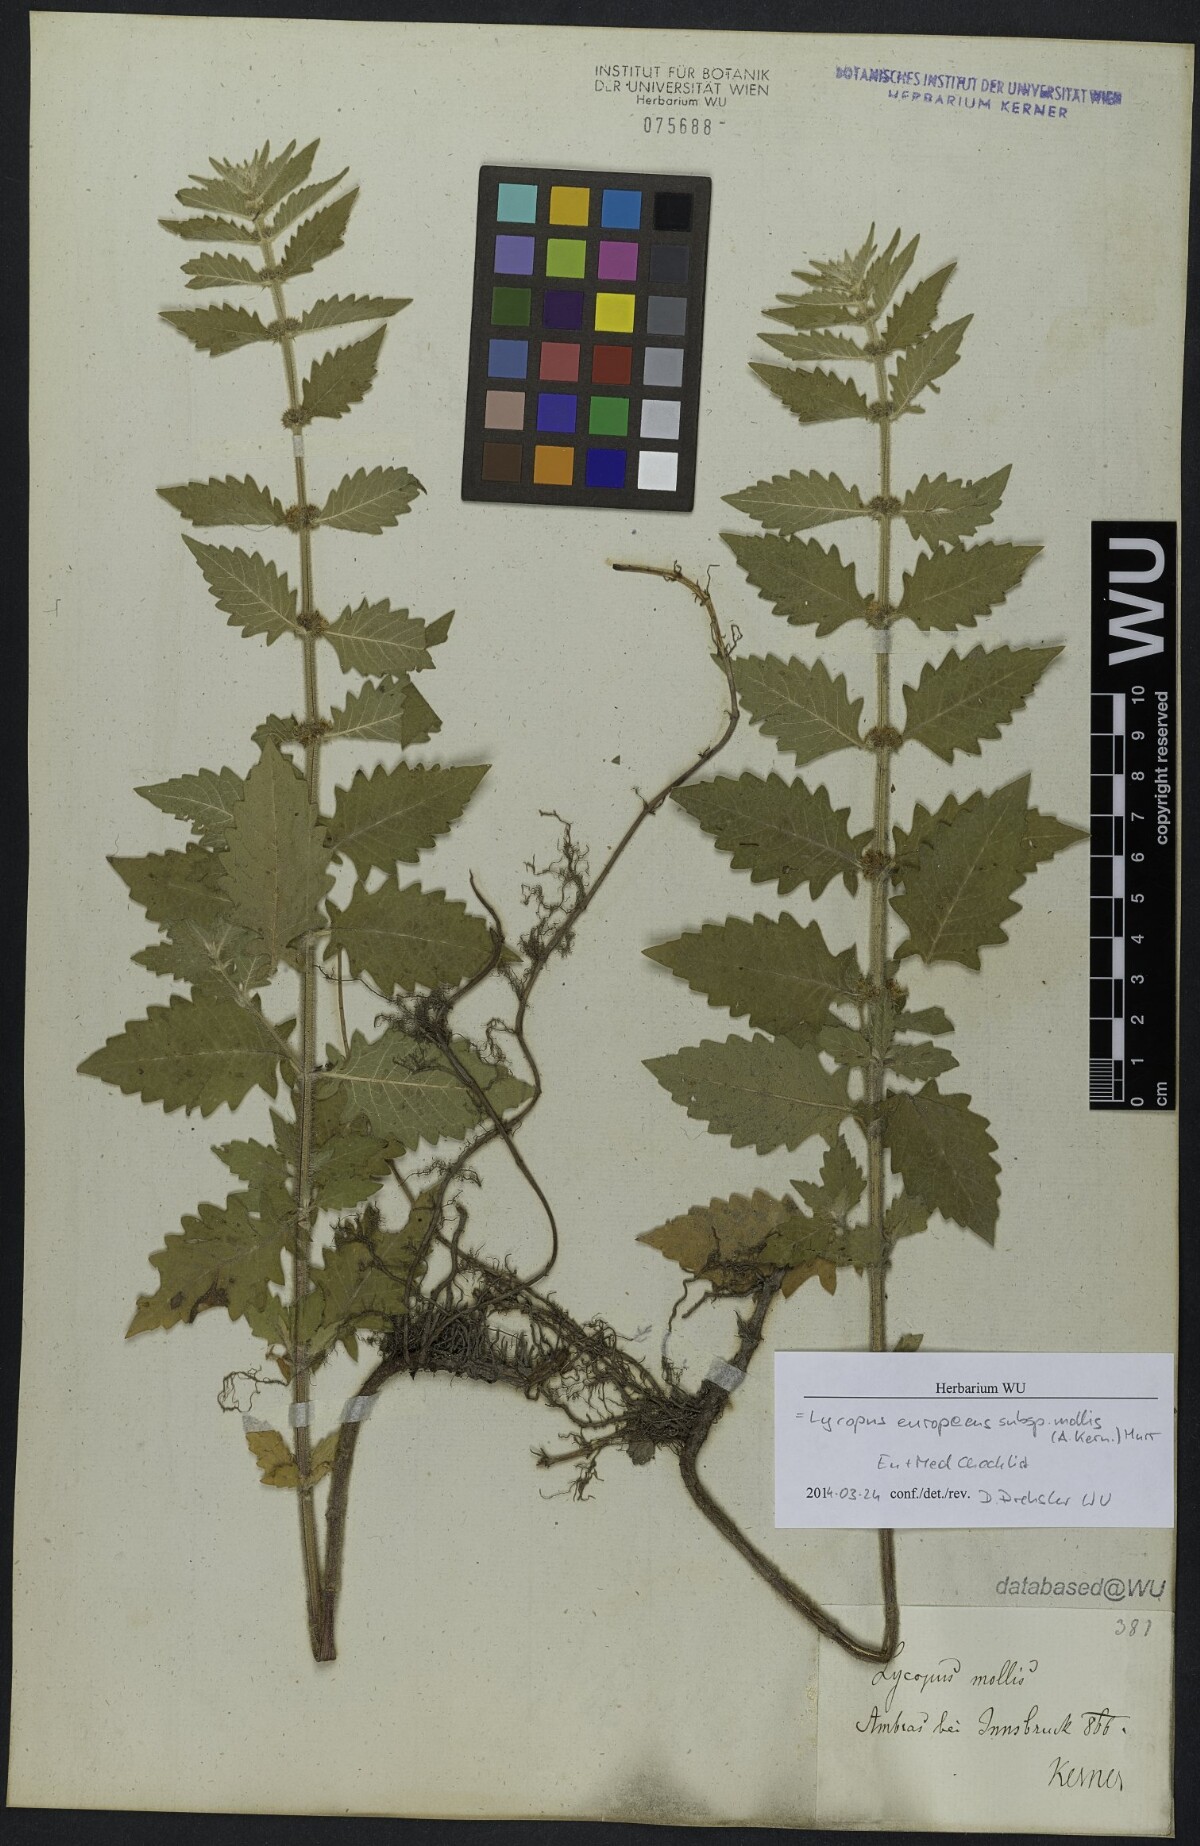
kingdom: Plantae
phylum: Tracheophyta
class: Magnoliopsida
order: Lamiales
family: Lamiaceae
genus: Lycopus
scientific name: Lycopus europaeus
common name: European bugleweed
